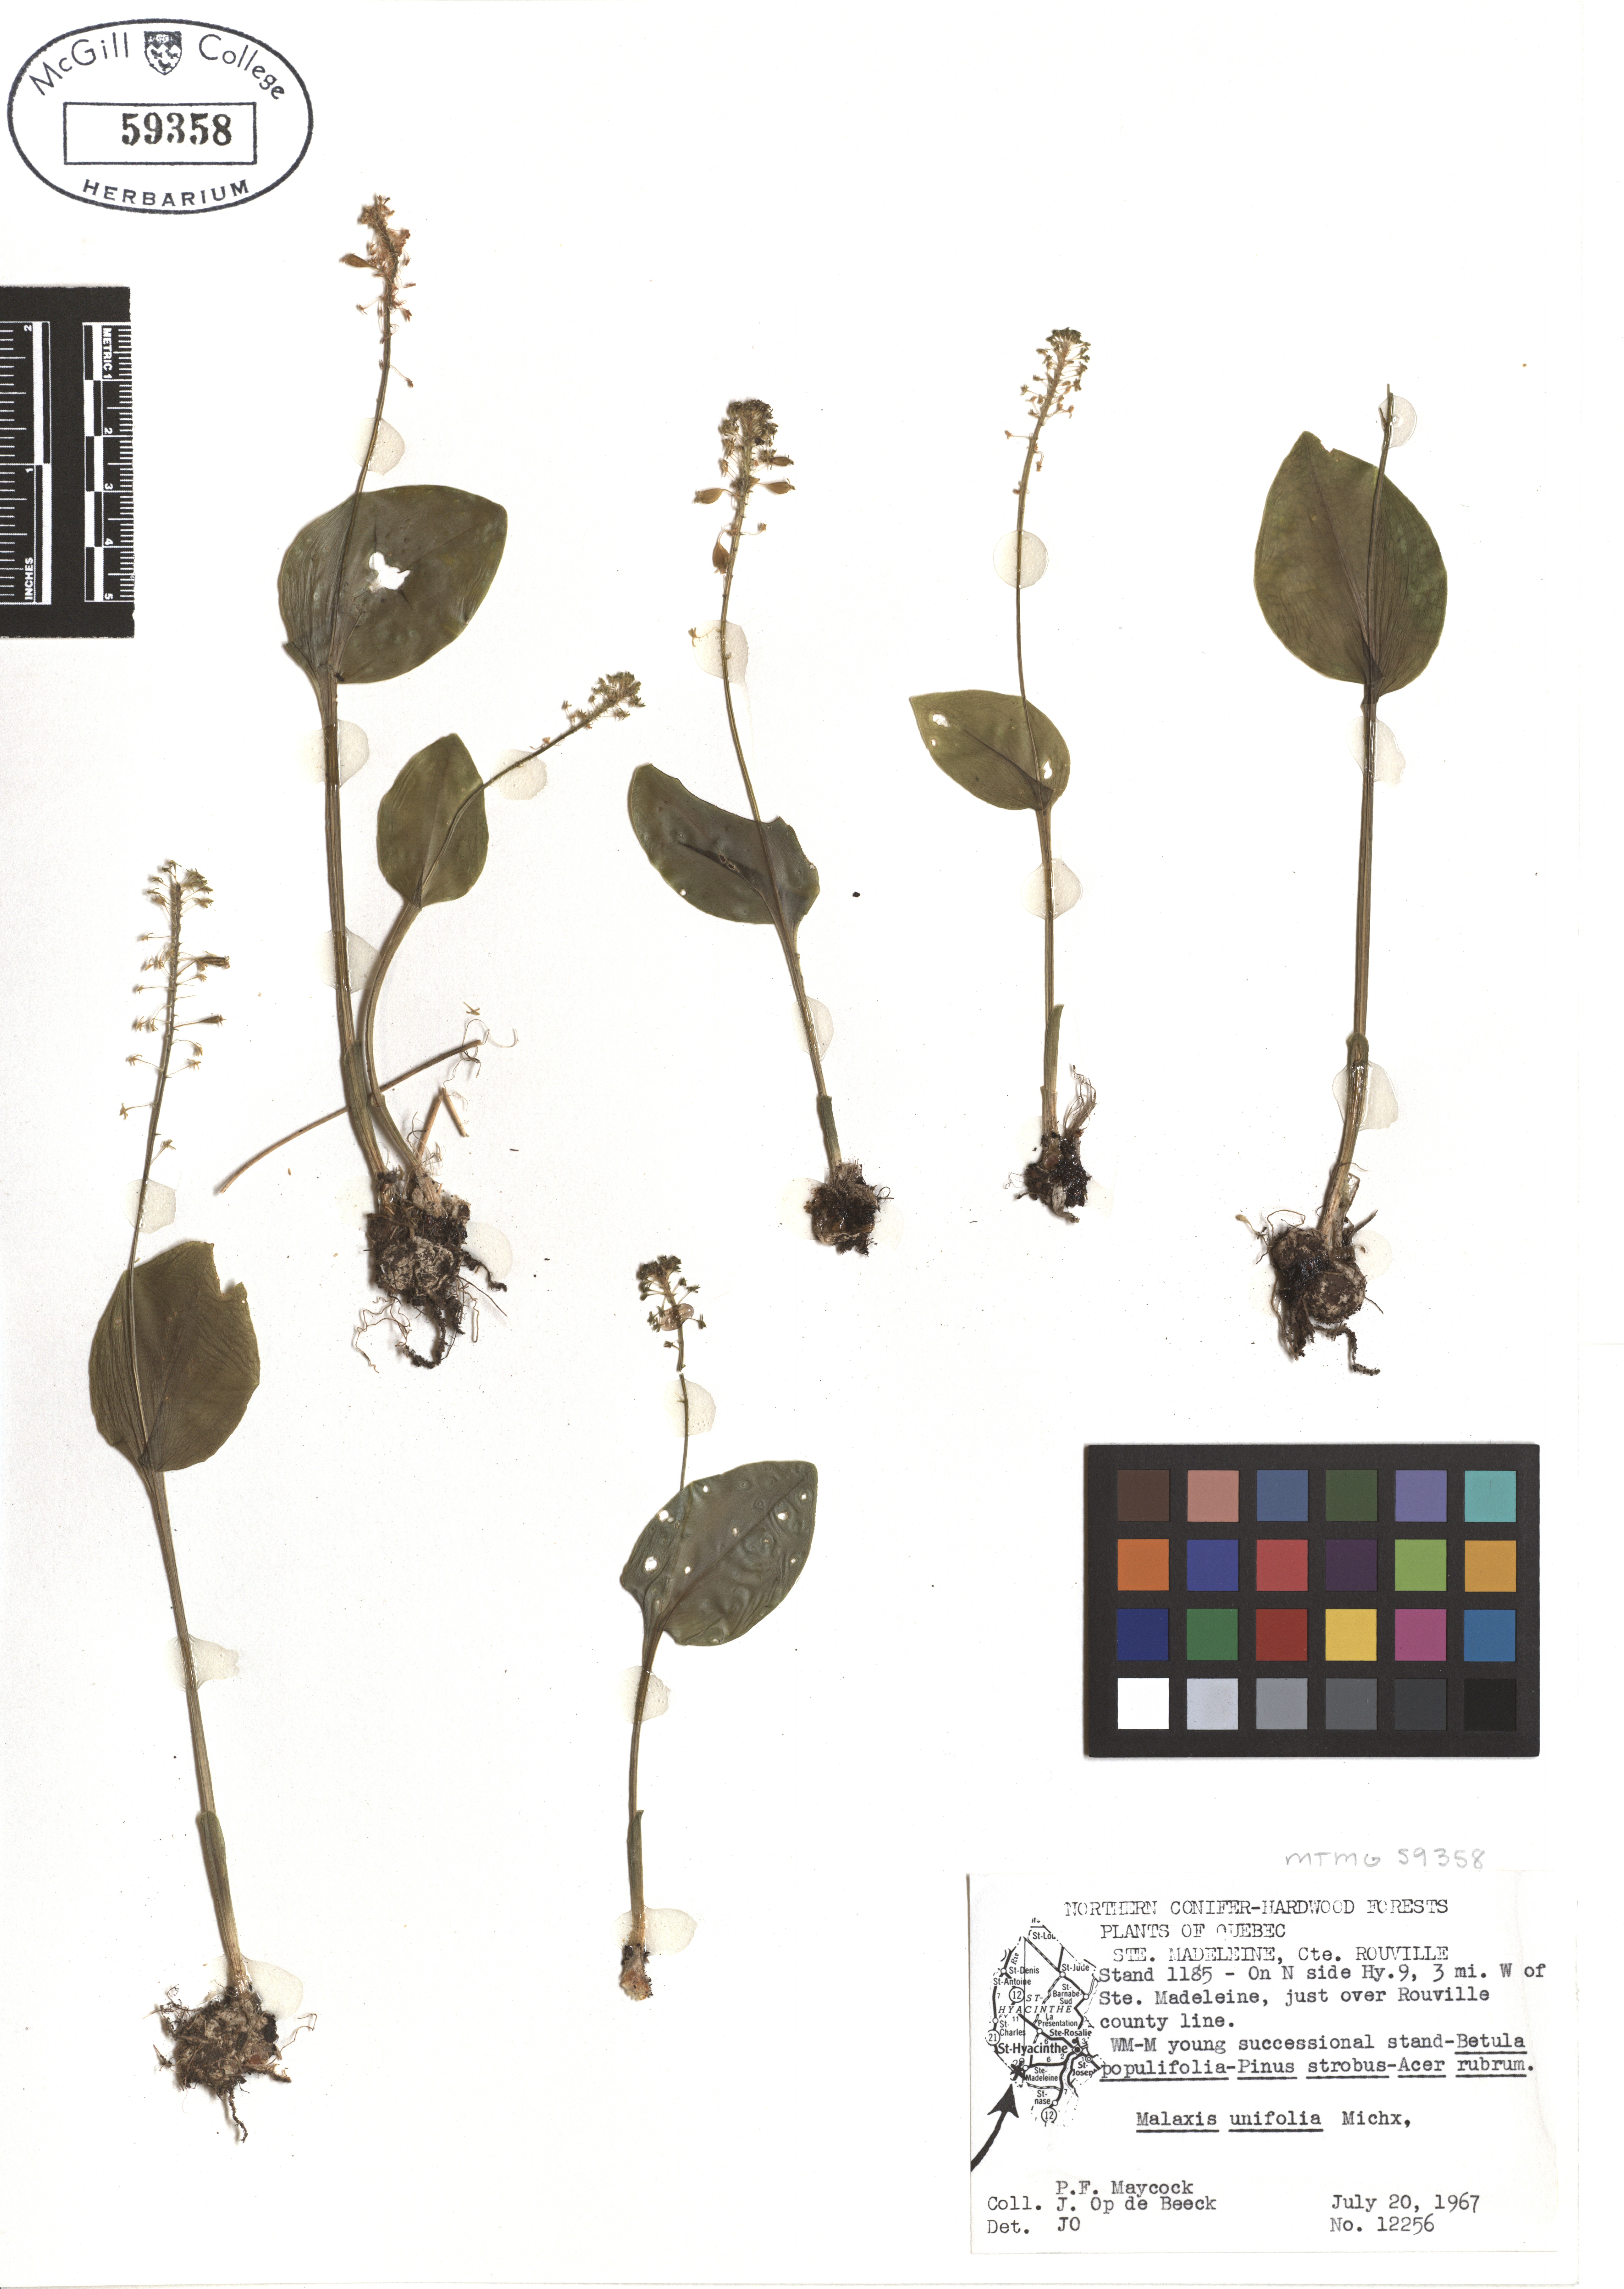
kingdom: Plantae
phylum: Tracheophyta
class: Liliopsida
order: Asparagales
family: Orchidaceae
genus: Malaxis
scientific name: Malaxis unifolia
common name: Green adder's-mouth
